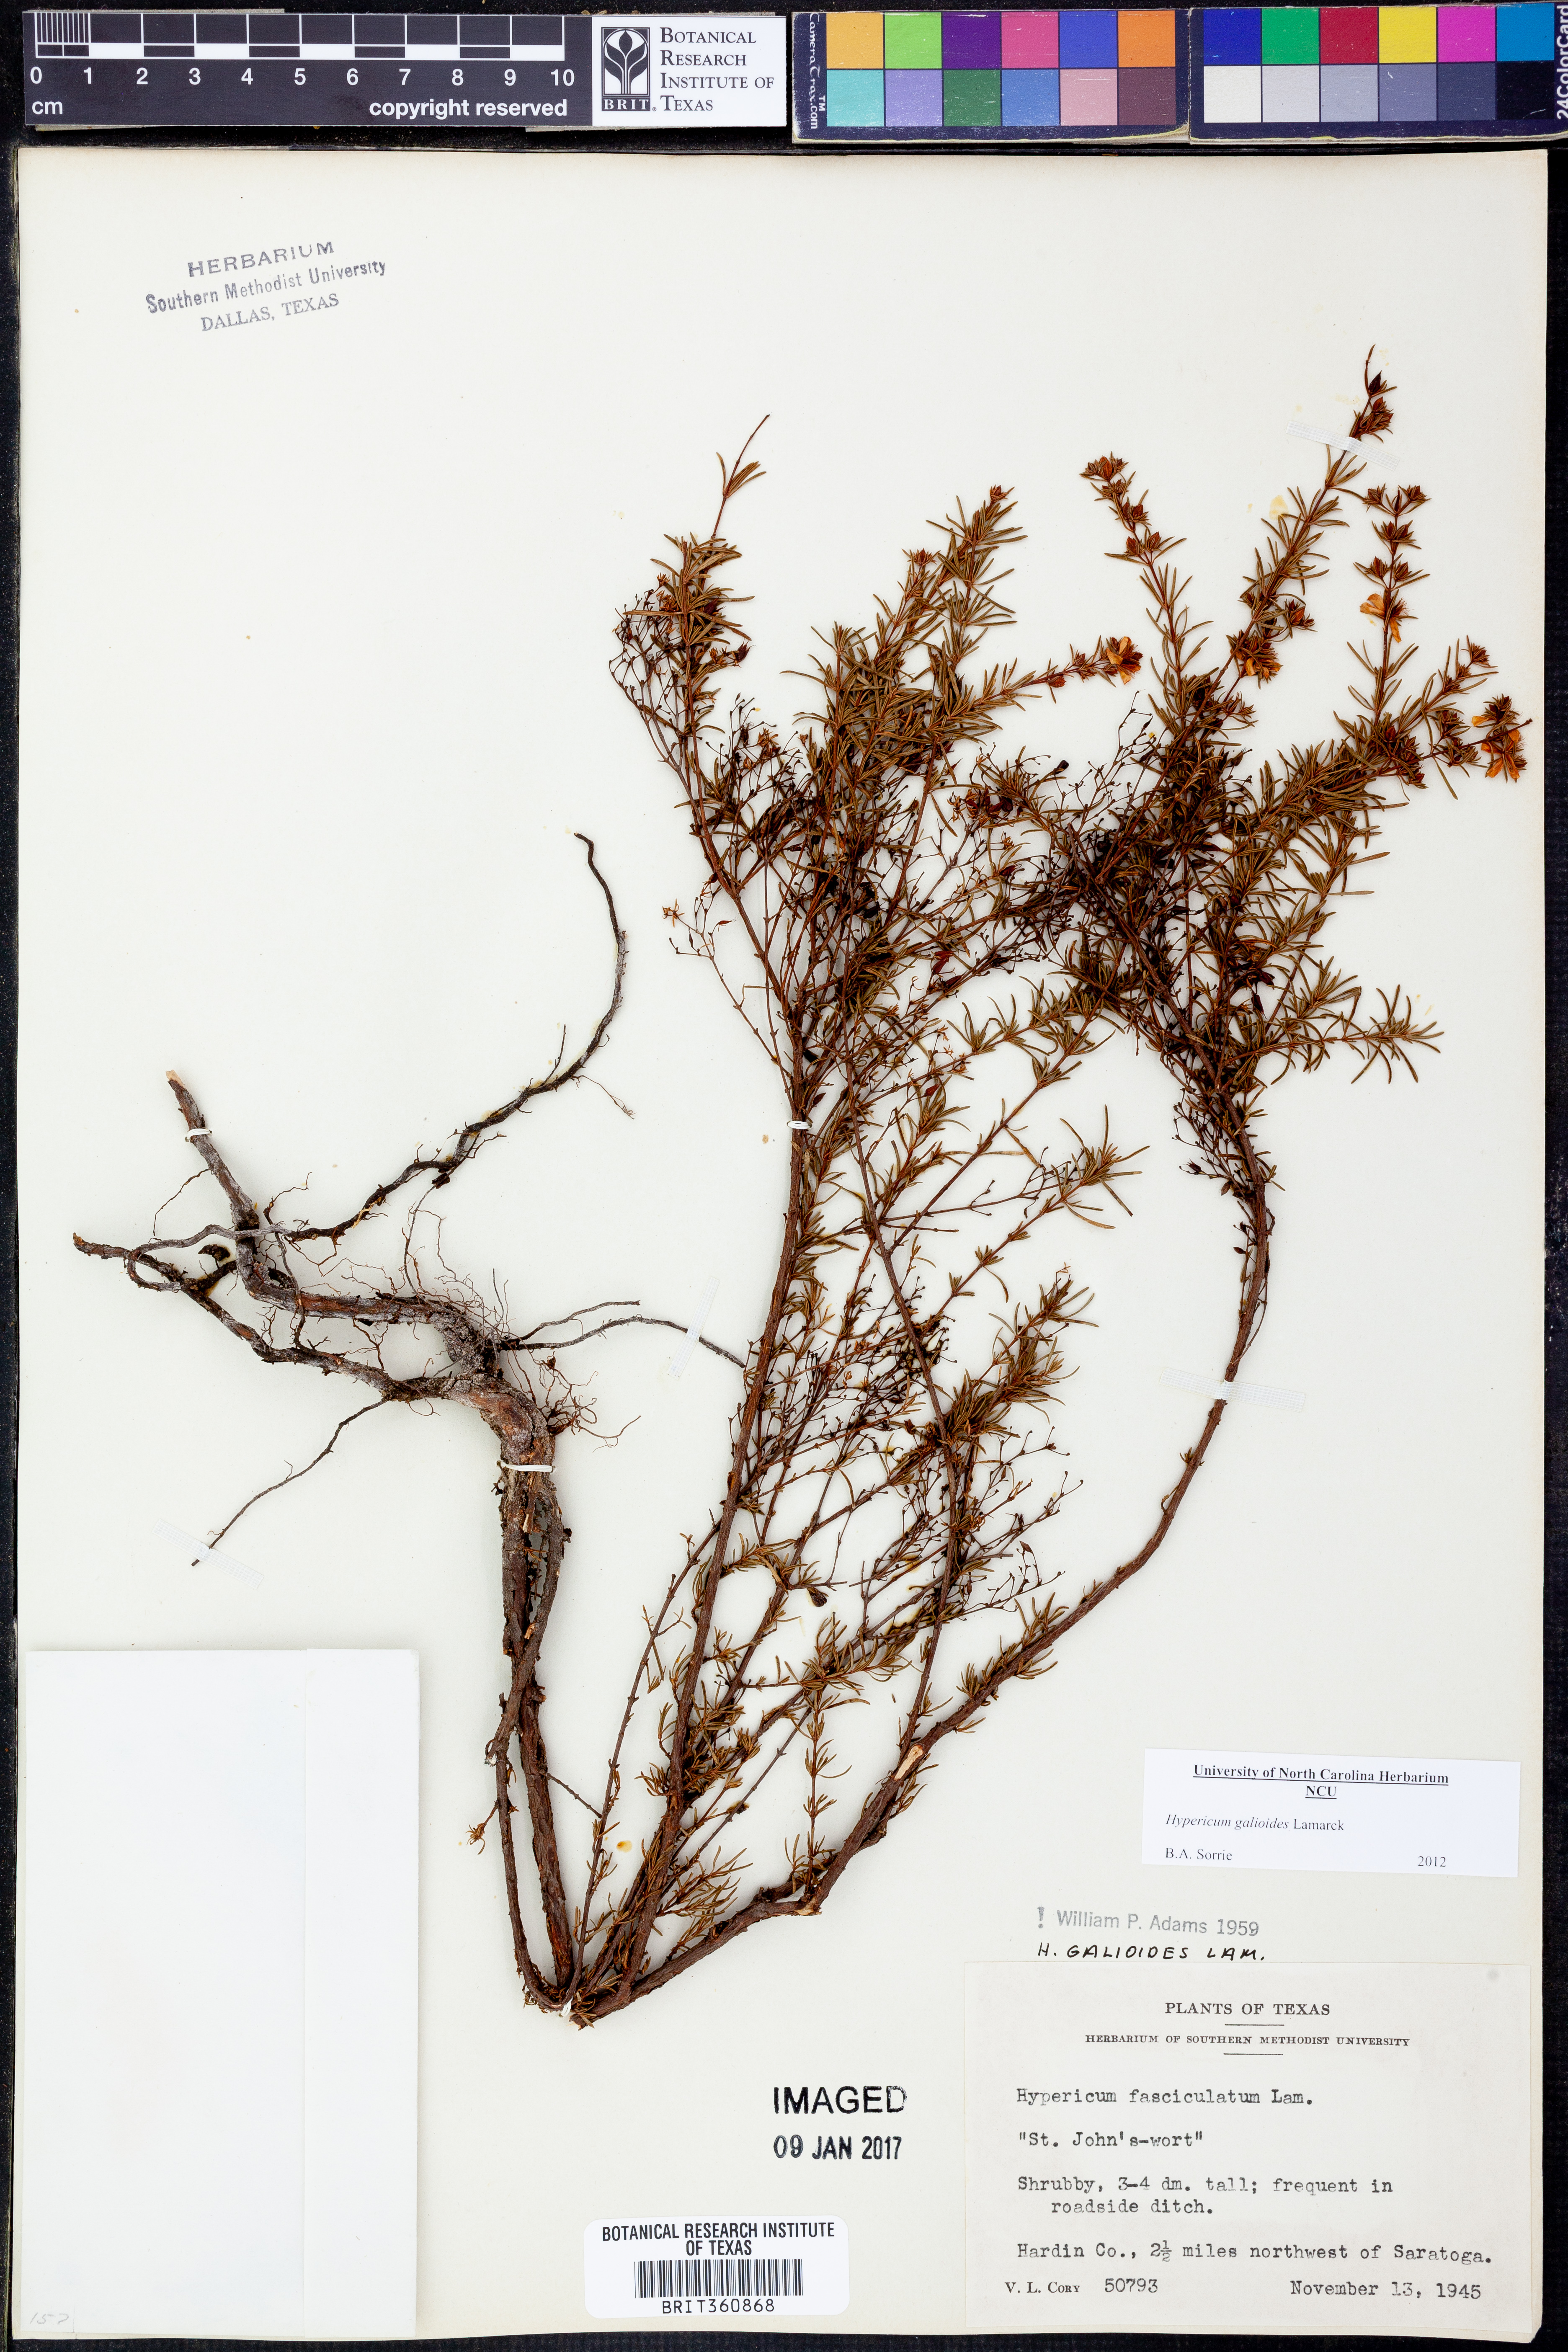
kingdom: Plantae
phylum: Tracheophyta
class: Magnoliopsida
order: Malpighiales
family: Hypericaceae
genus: Hypericum
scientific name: Hypericum galioides
